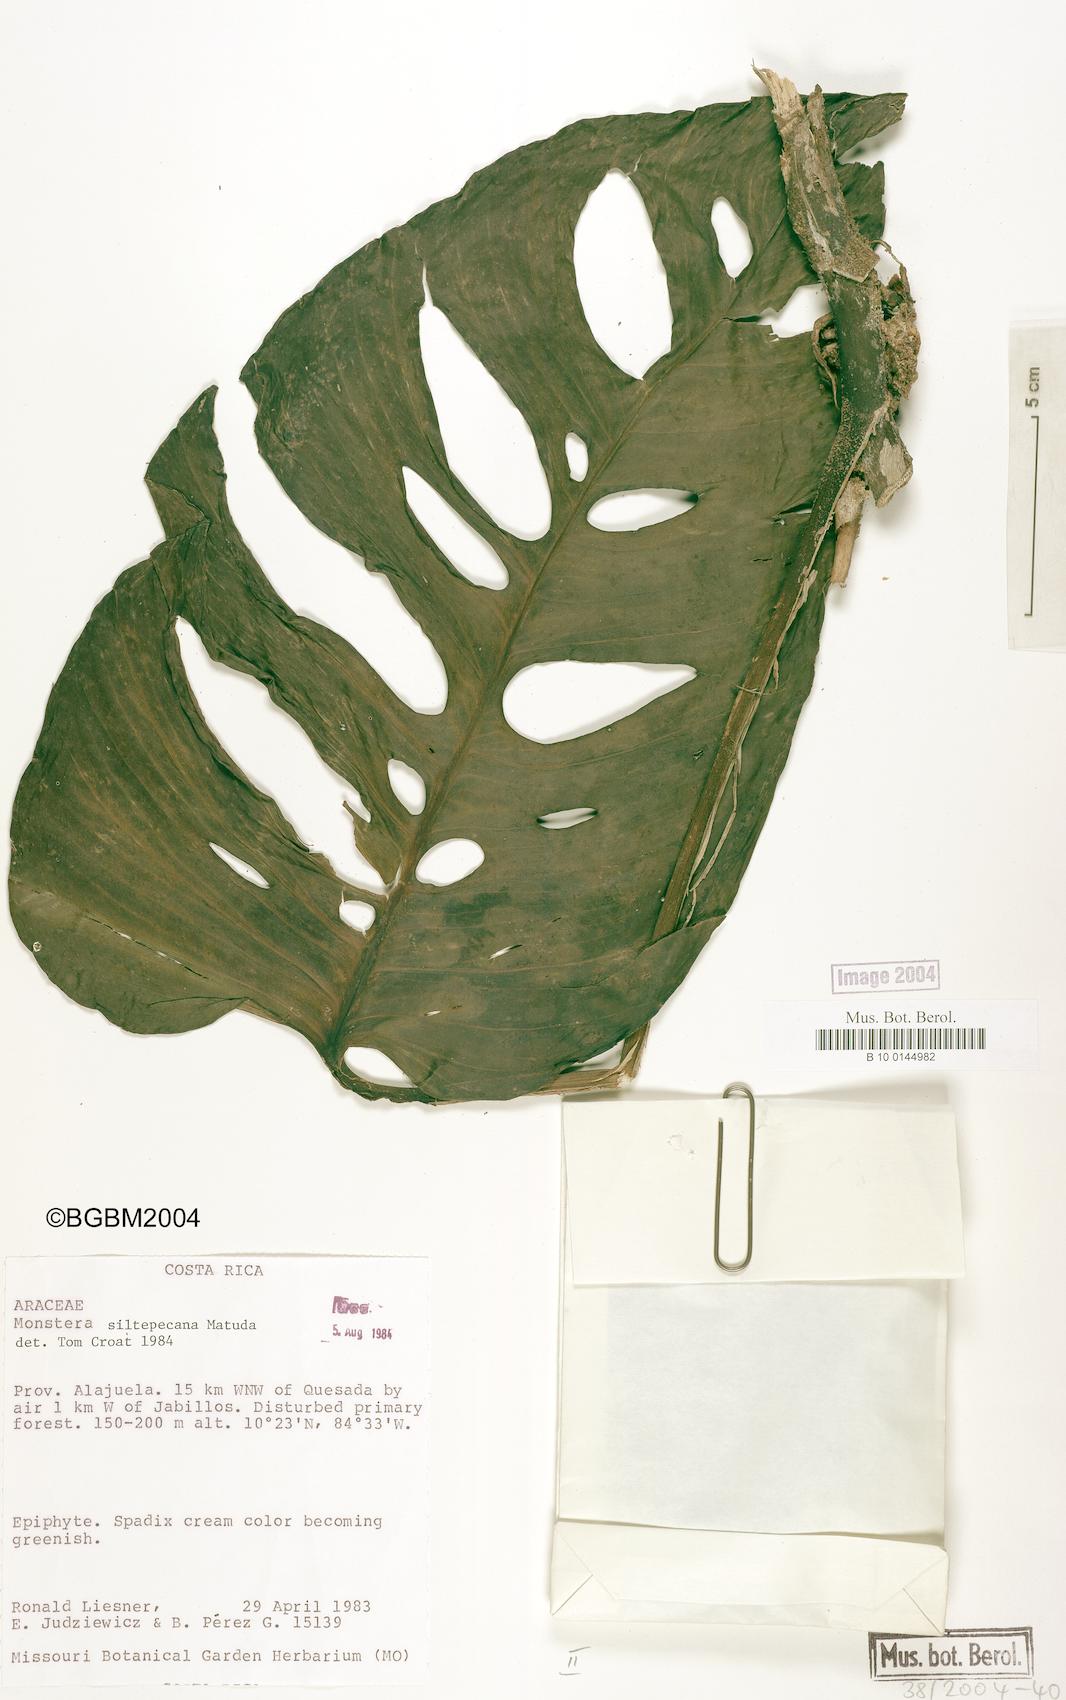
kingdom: Plantae
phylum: Tracheophyta
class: Liliopsida
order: Alismatales
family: Araceae
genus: Monstera
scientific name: Monstera siltepecana
